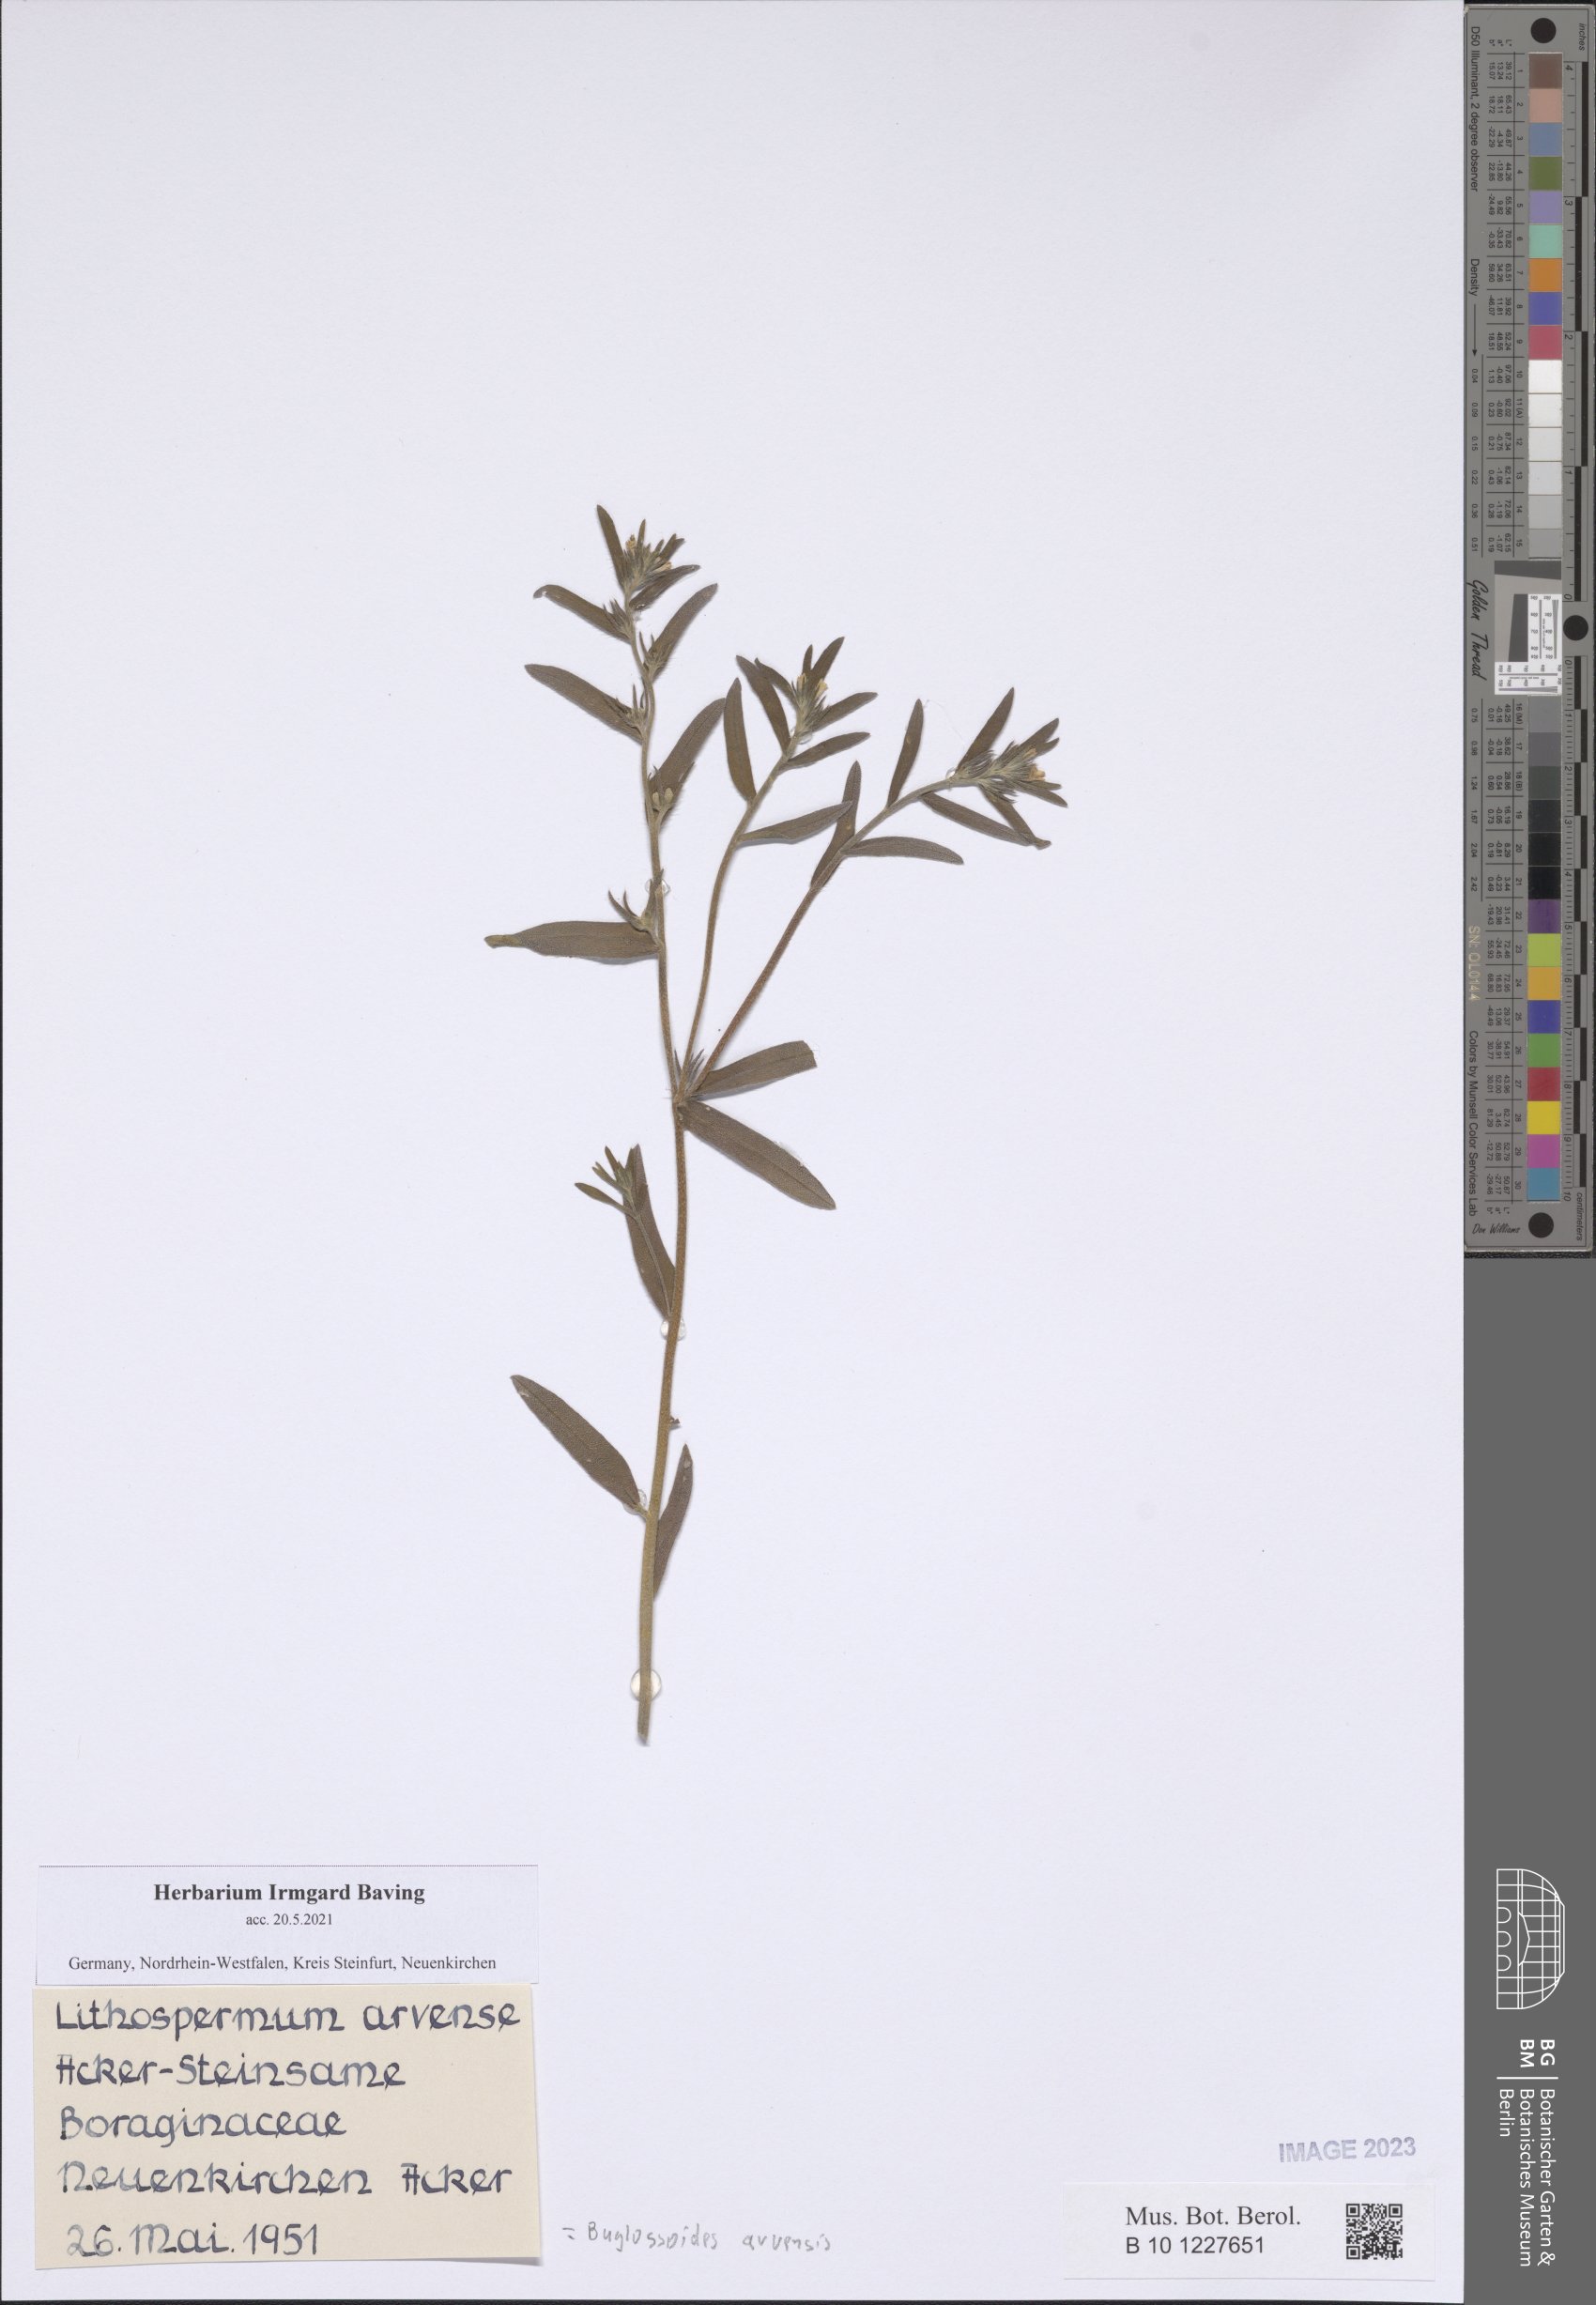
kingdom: Plantae
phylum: Tracheophyta
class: Magnoliopsida
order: Boraginales
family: Boraginaceae
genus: Buglossoides
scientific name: Buglossoides arvensis
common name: Corn gromwell
